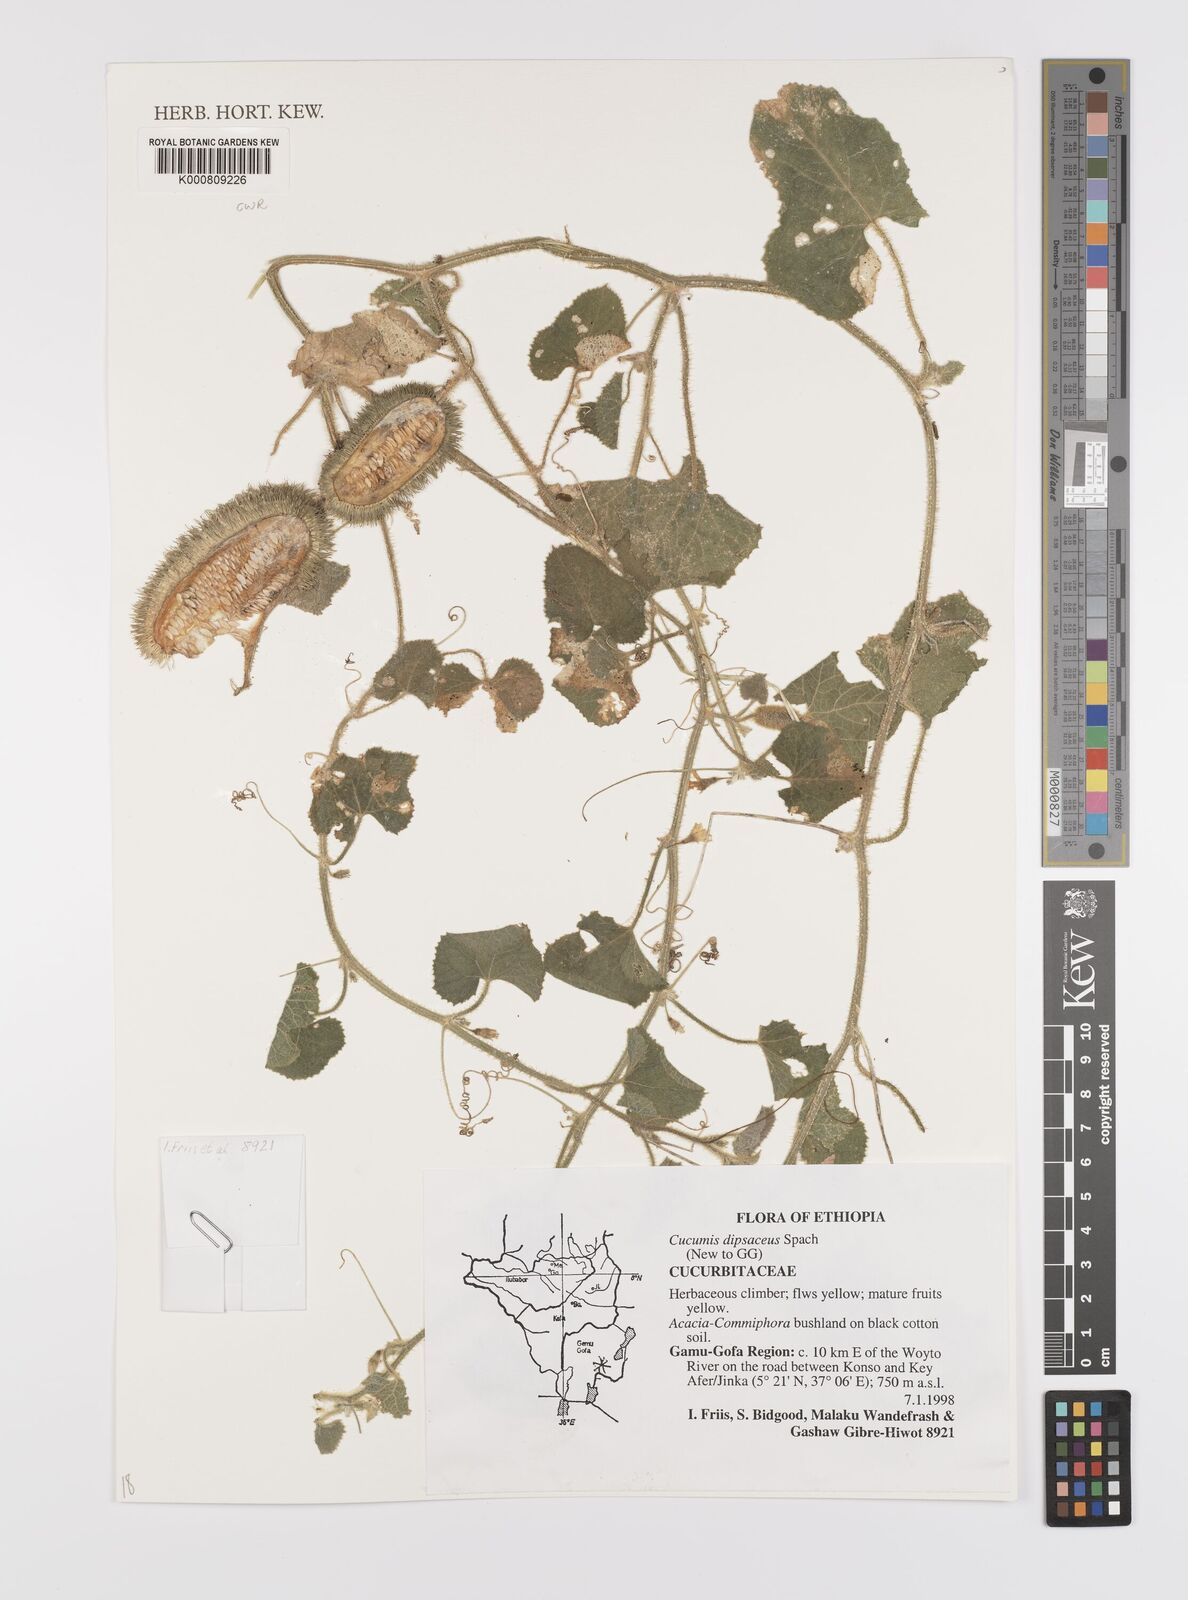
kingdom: Plantae
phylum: Tracheophyta
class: Magnoliopsida
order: Cucurbitales
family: Cucurbitaceae
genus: Cucumis
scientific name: Cucumis dipsaceus
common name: Hedgehog gourd
